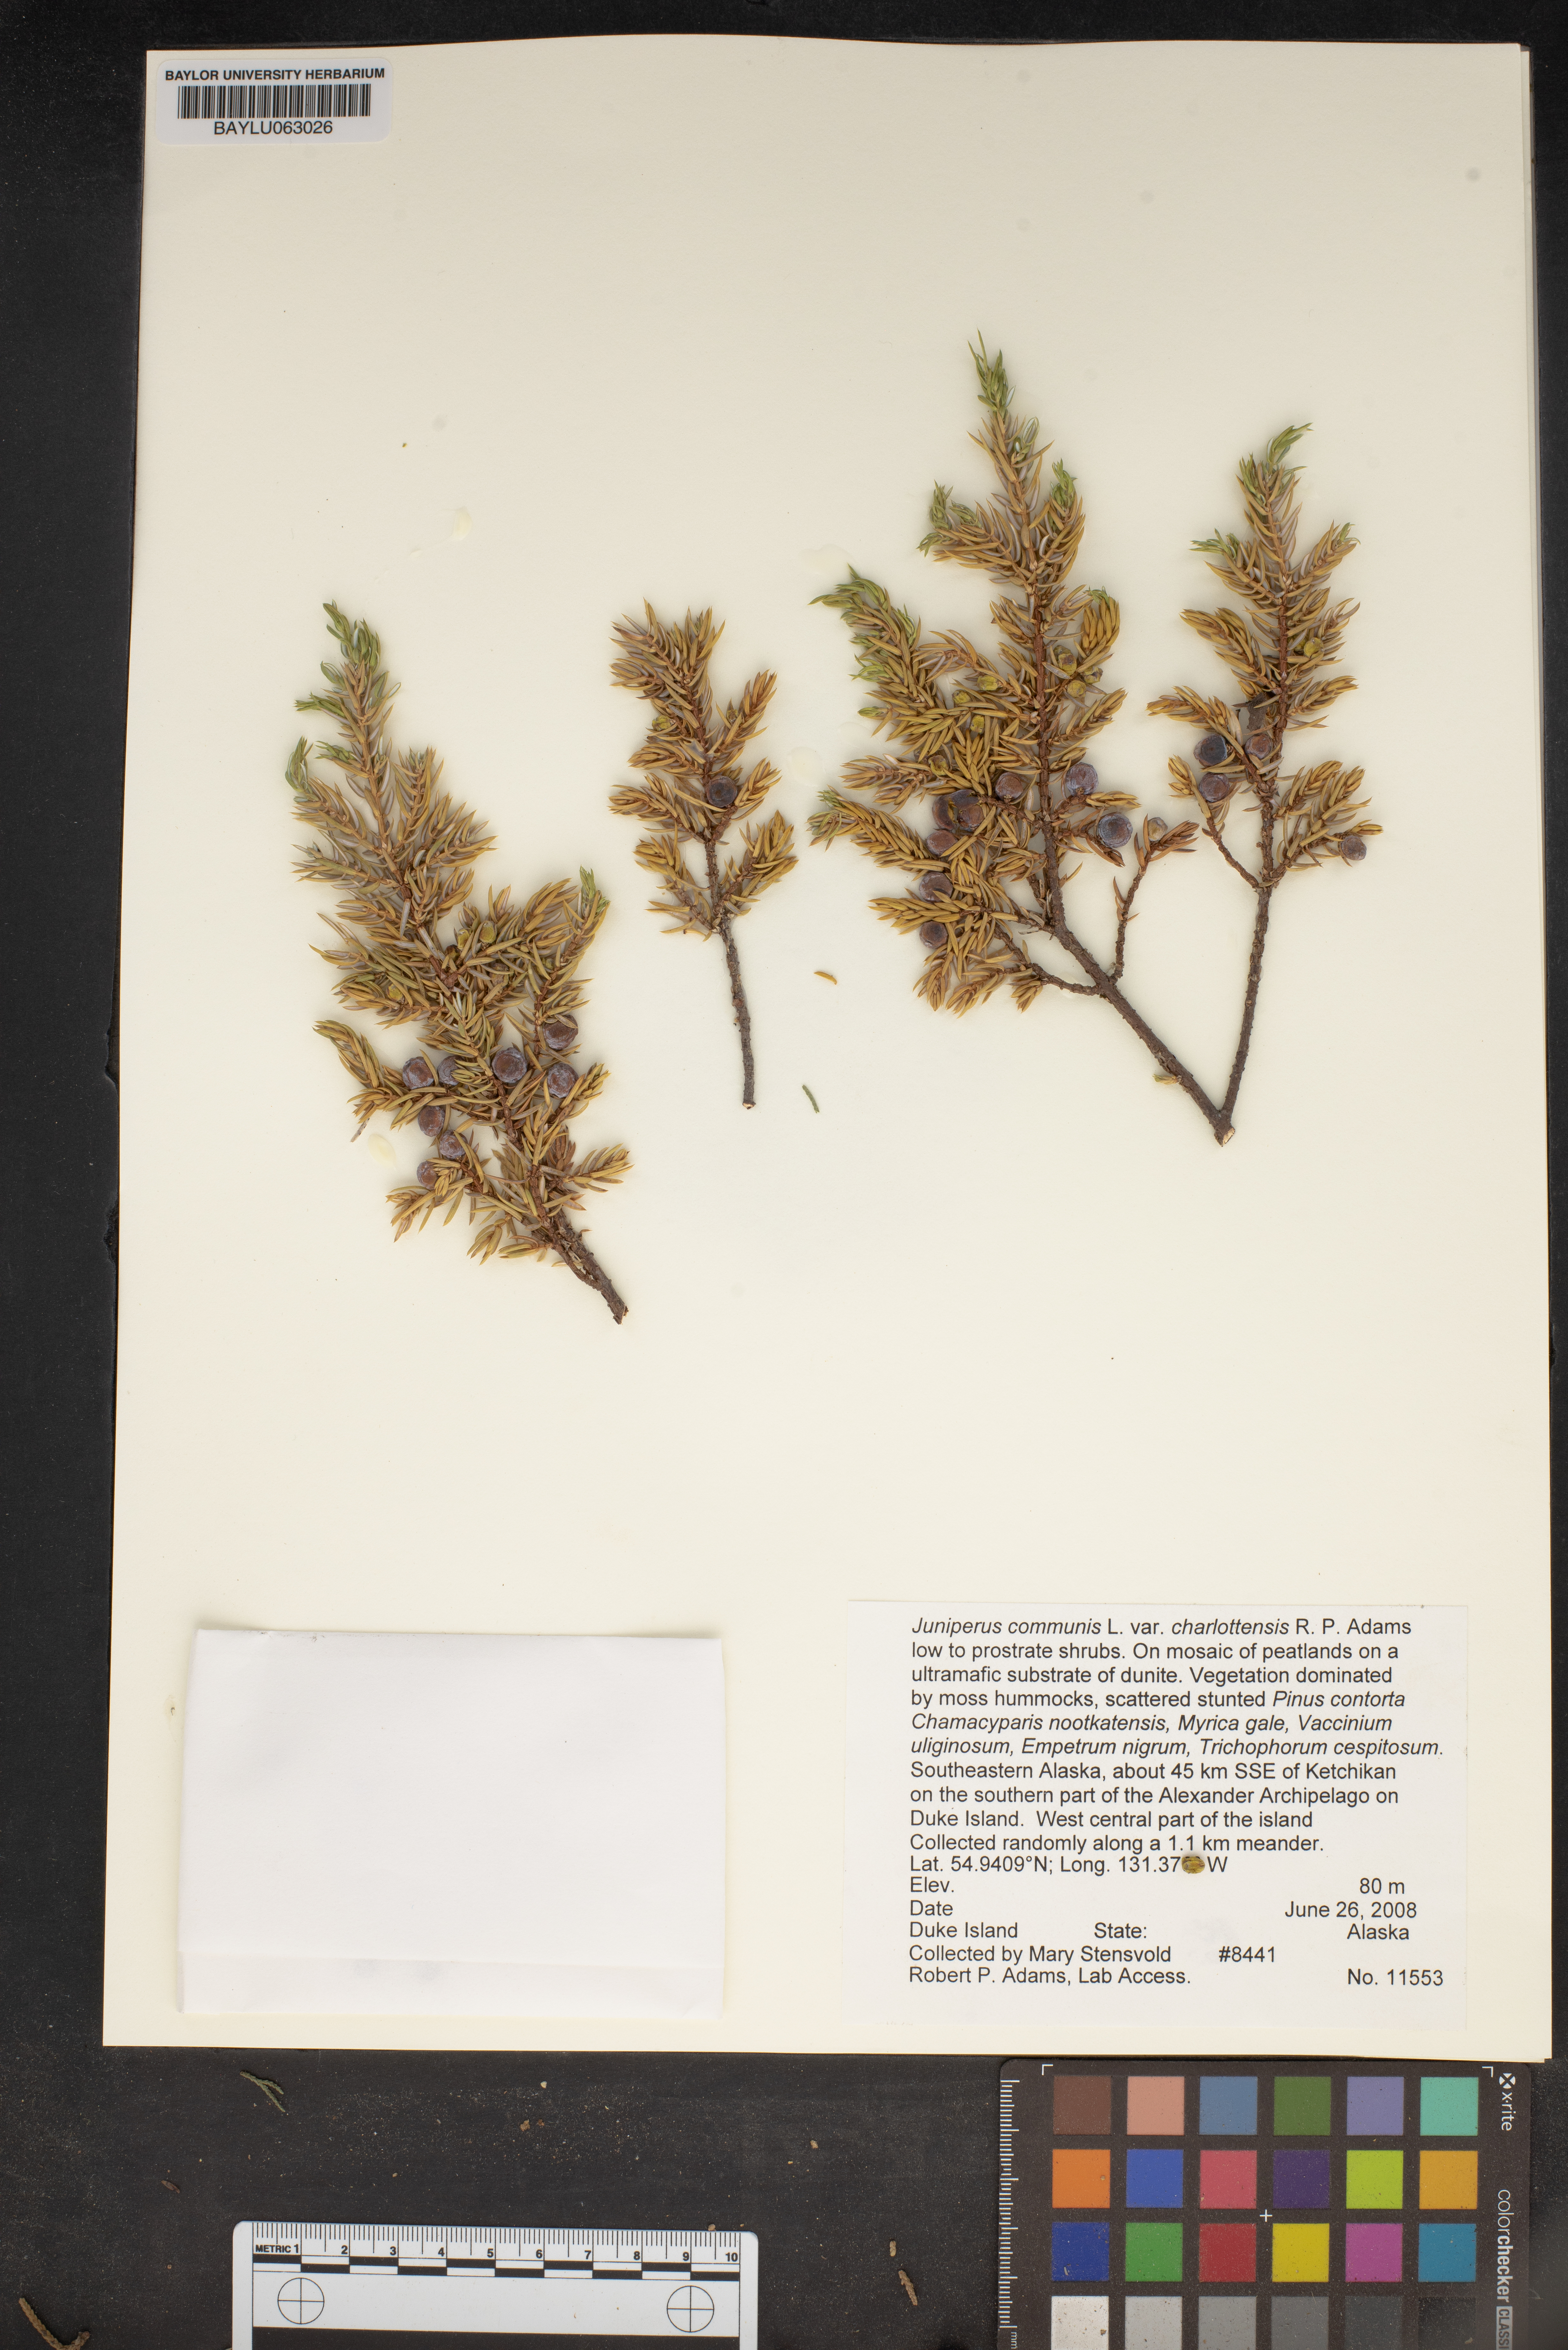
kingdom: Plantae
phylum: Tracheophyta
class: Pinopsida
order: Pinales
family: Cupressaceae
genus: Juniperus
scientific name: Juniperus communis
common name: Common juniper
